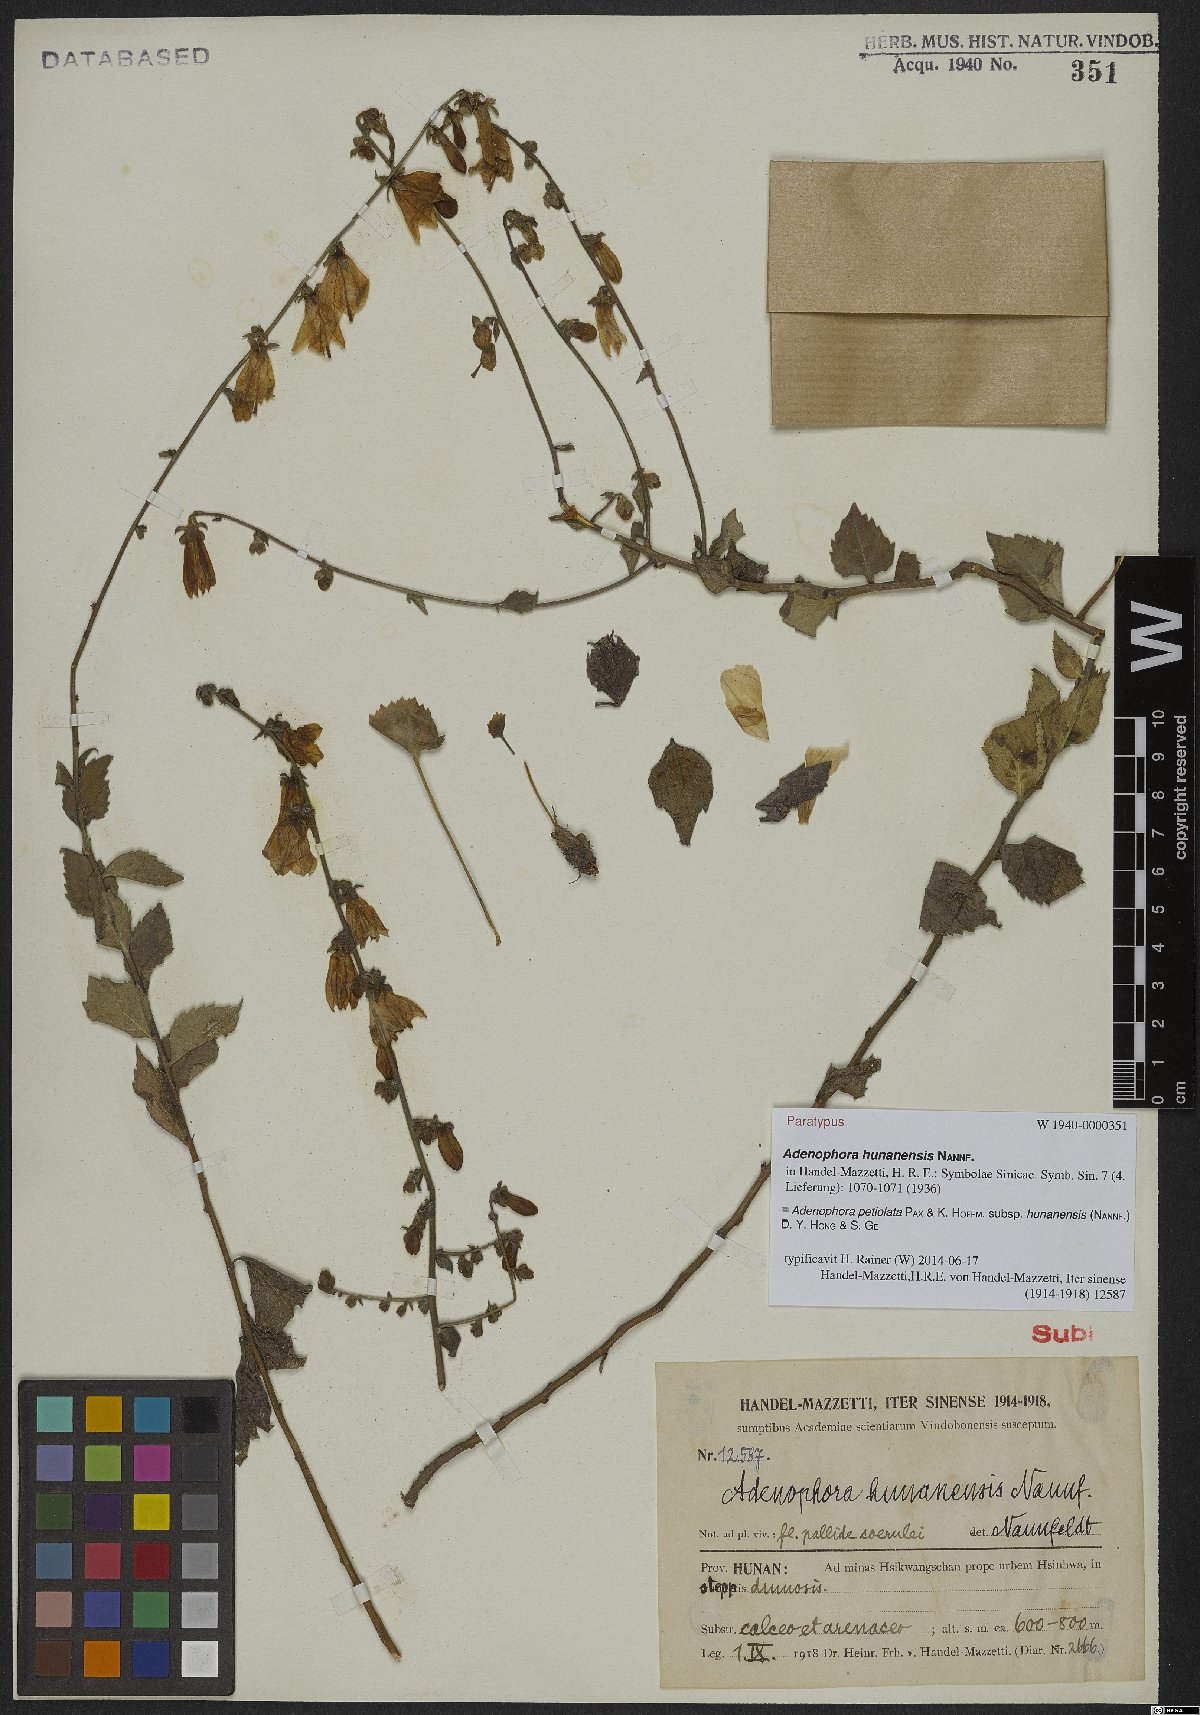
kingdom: Plantae
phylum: Tracheophyta
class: Magnoliopsida
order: Asterales
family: Campanulaceae
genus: Adenophora
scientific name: Adenophora petiolata
